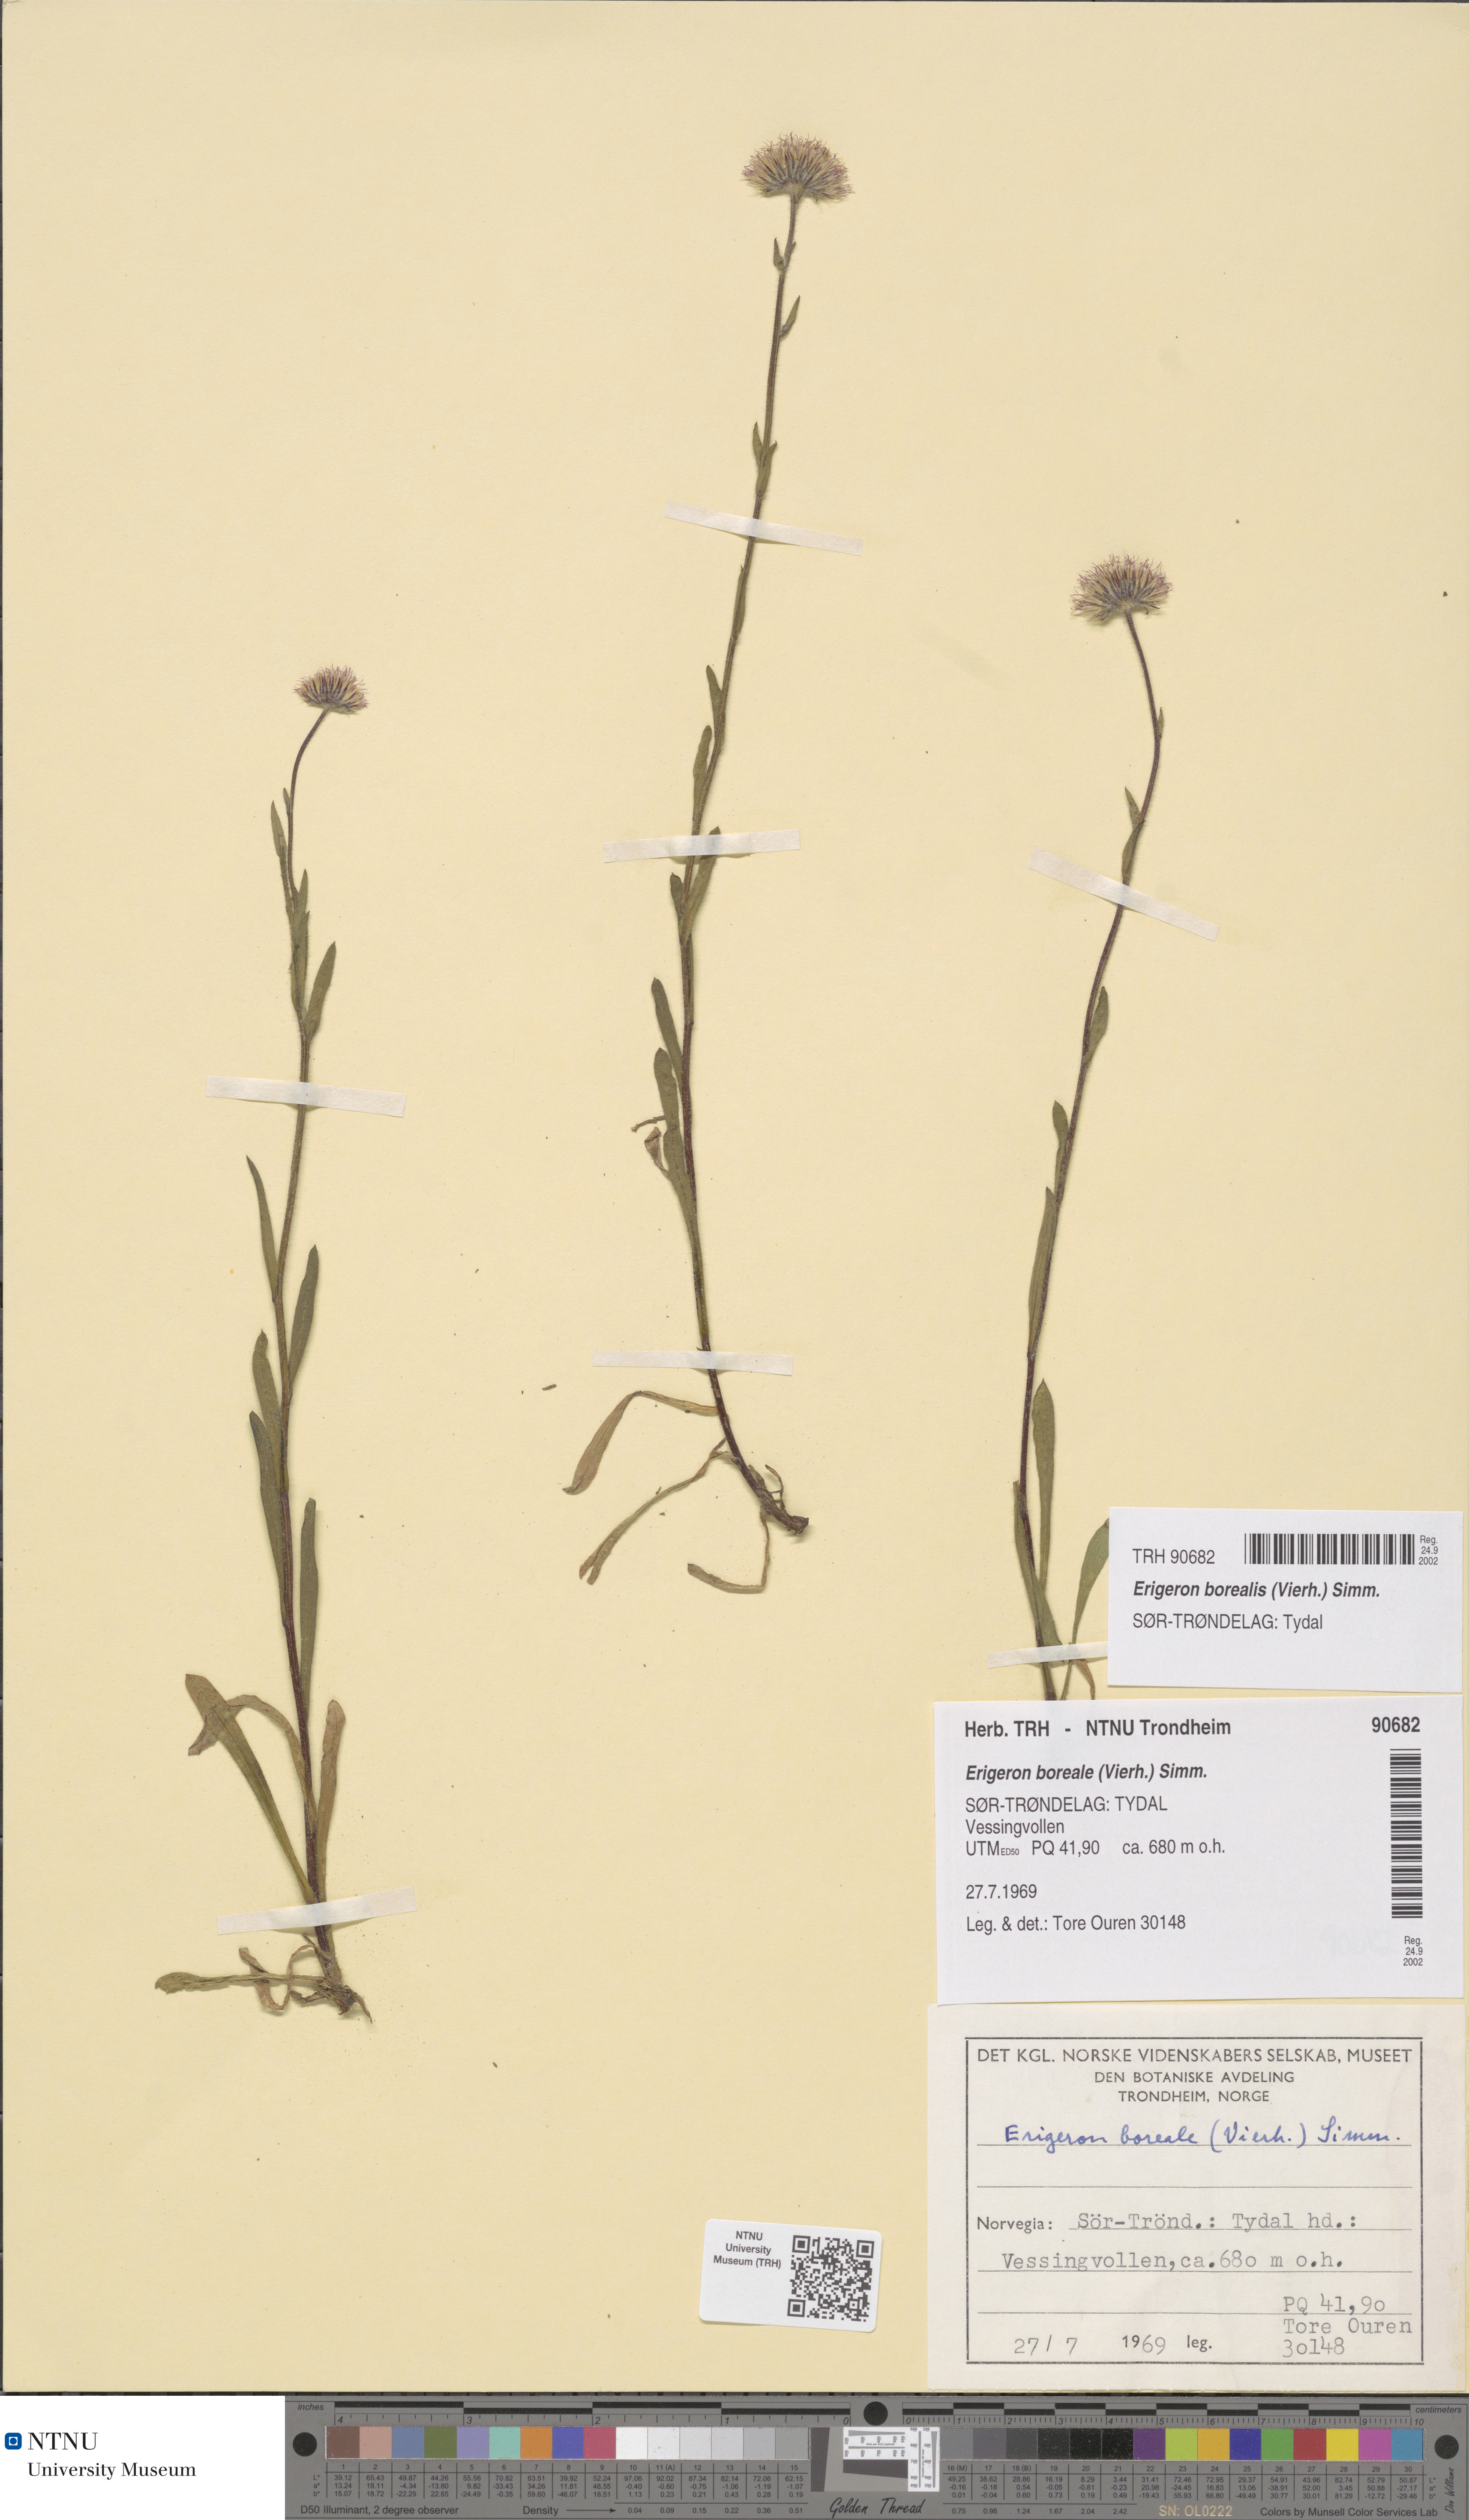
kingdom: Plantae
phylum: Tracheophyta
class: Magnoliopsida
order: Asterales
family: Asteraceae
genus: Erigeron
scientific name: Erigeron borealis
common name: Alpine fleabane
